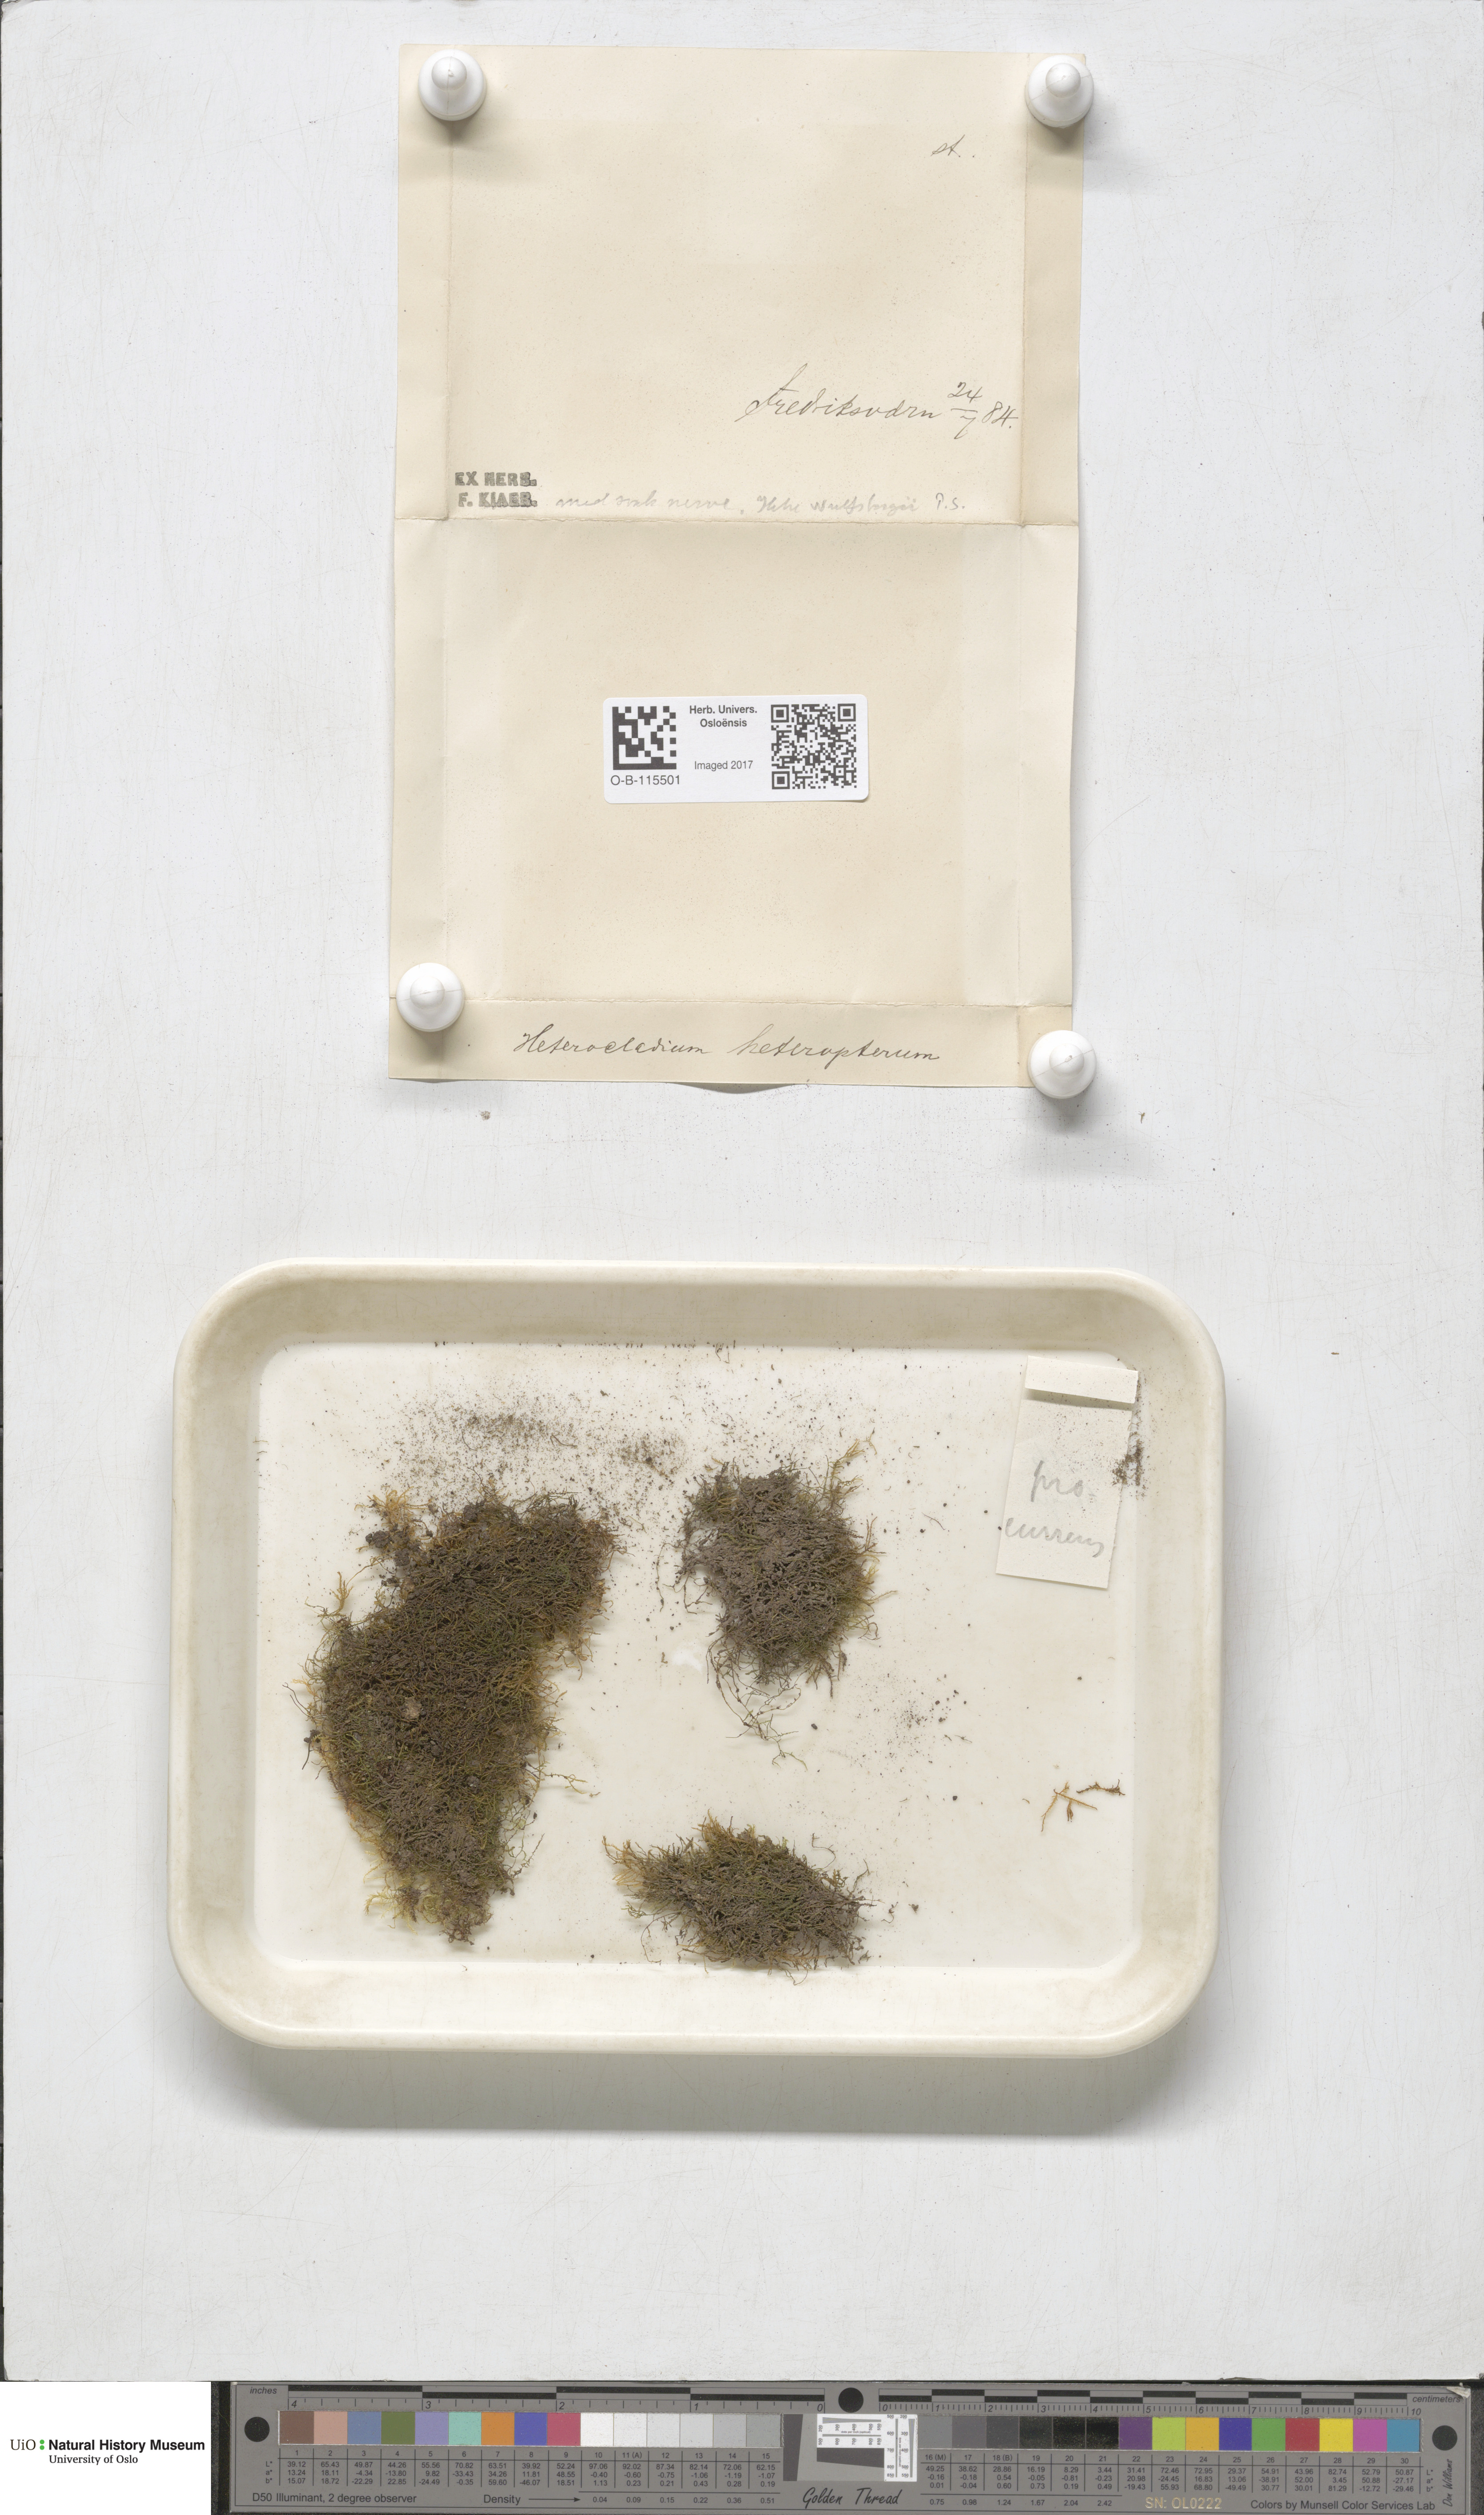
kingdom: Plantae
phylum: Bryophyta
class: Bryopsida
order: Hypnales
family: Lembophyllaceae
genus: Heterocladium
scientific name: Heterocladium heteropterum
